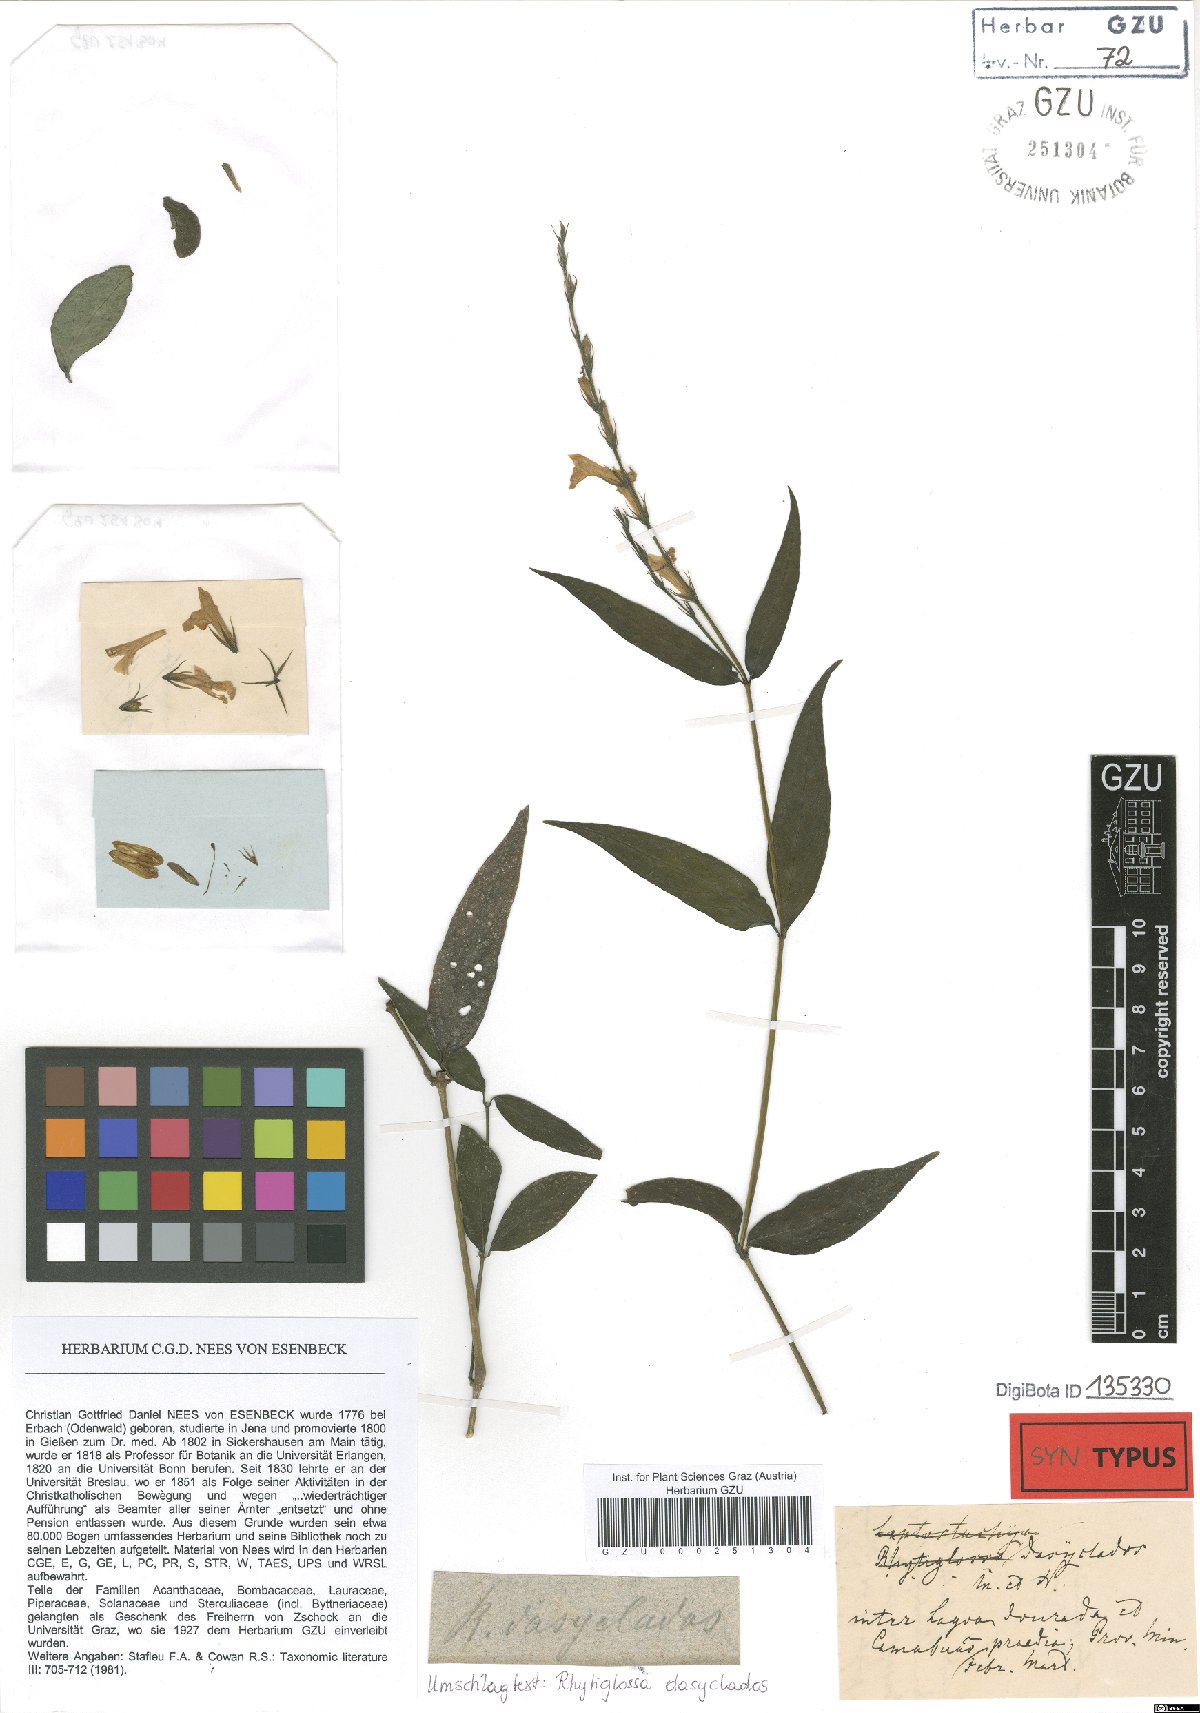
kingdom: Plantae
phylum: Tracheophyta
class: Magnoliopsida
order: Lamiales
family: Acanthaceae
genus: Dianthera
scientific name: Dianthera dasyclados
